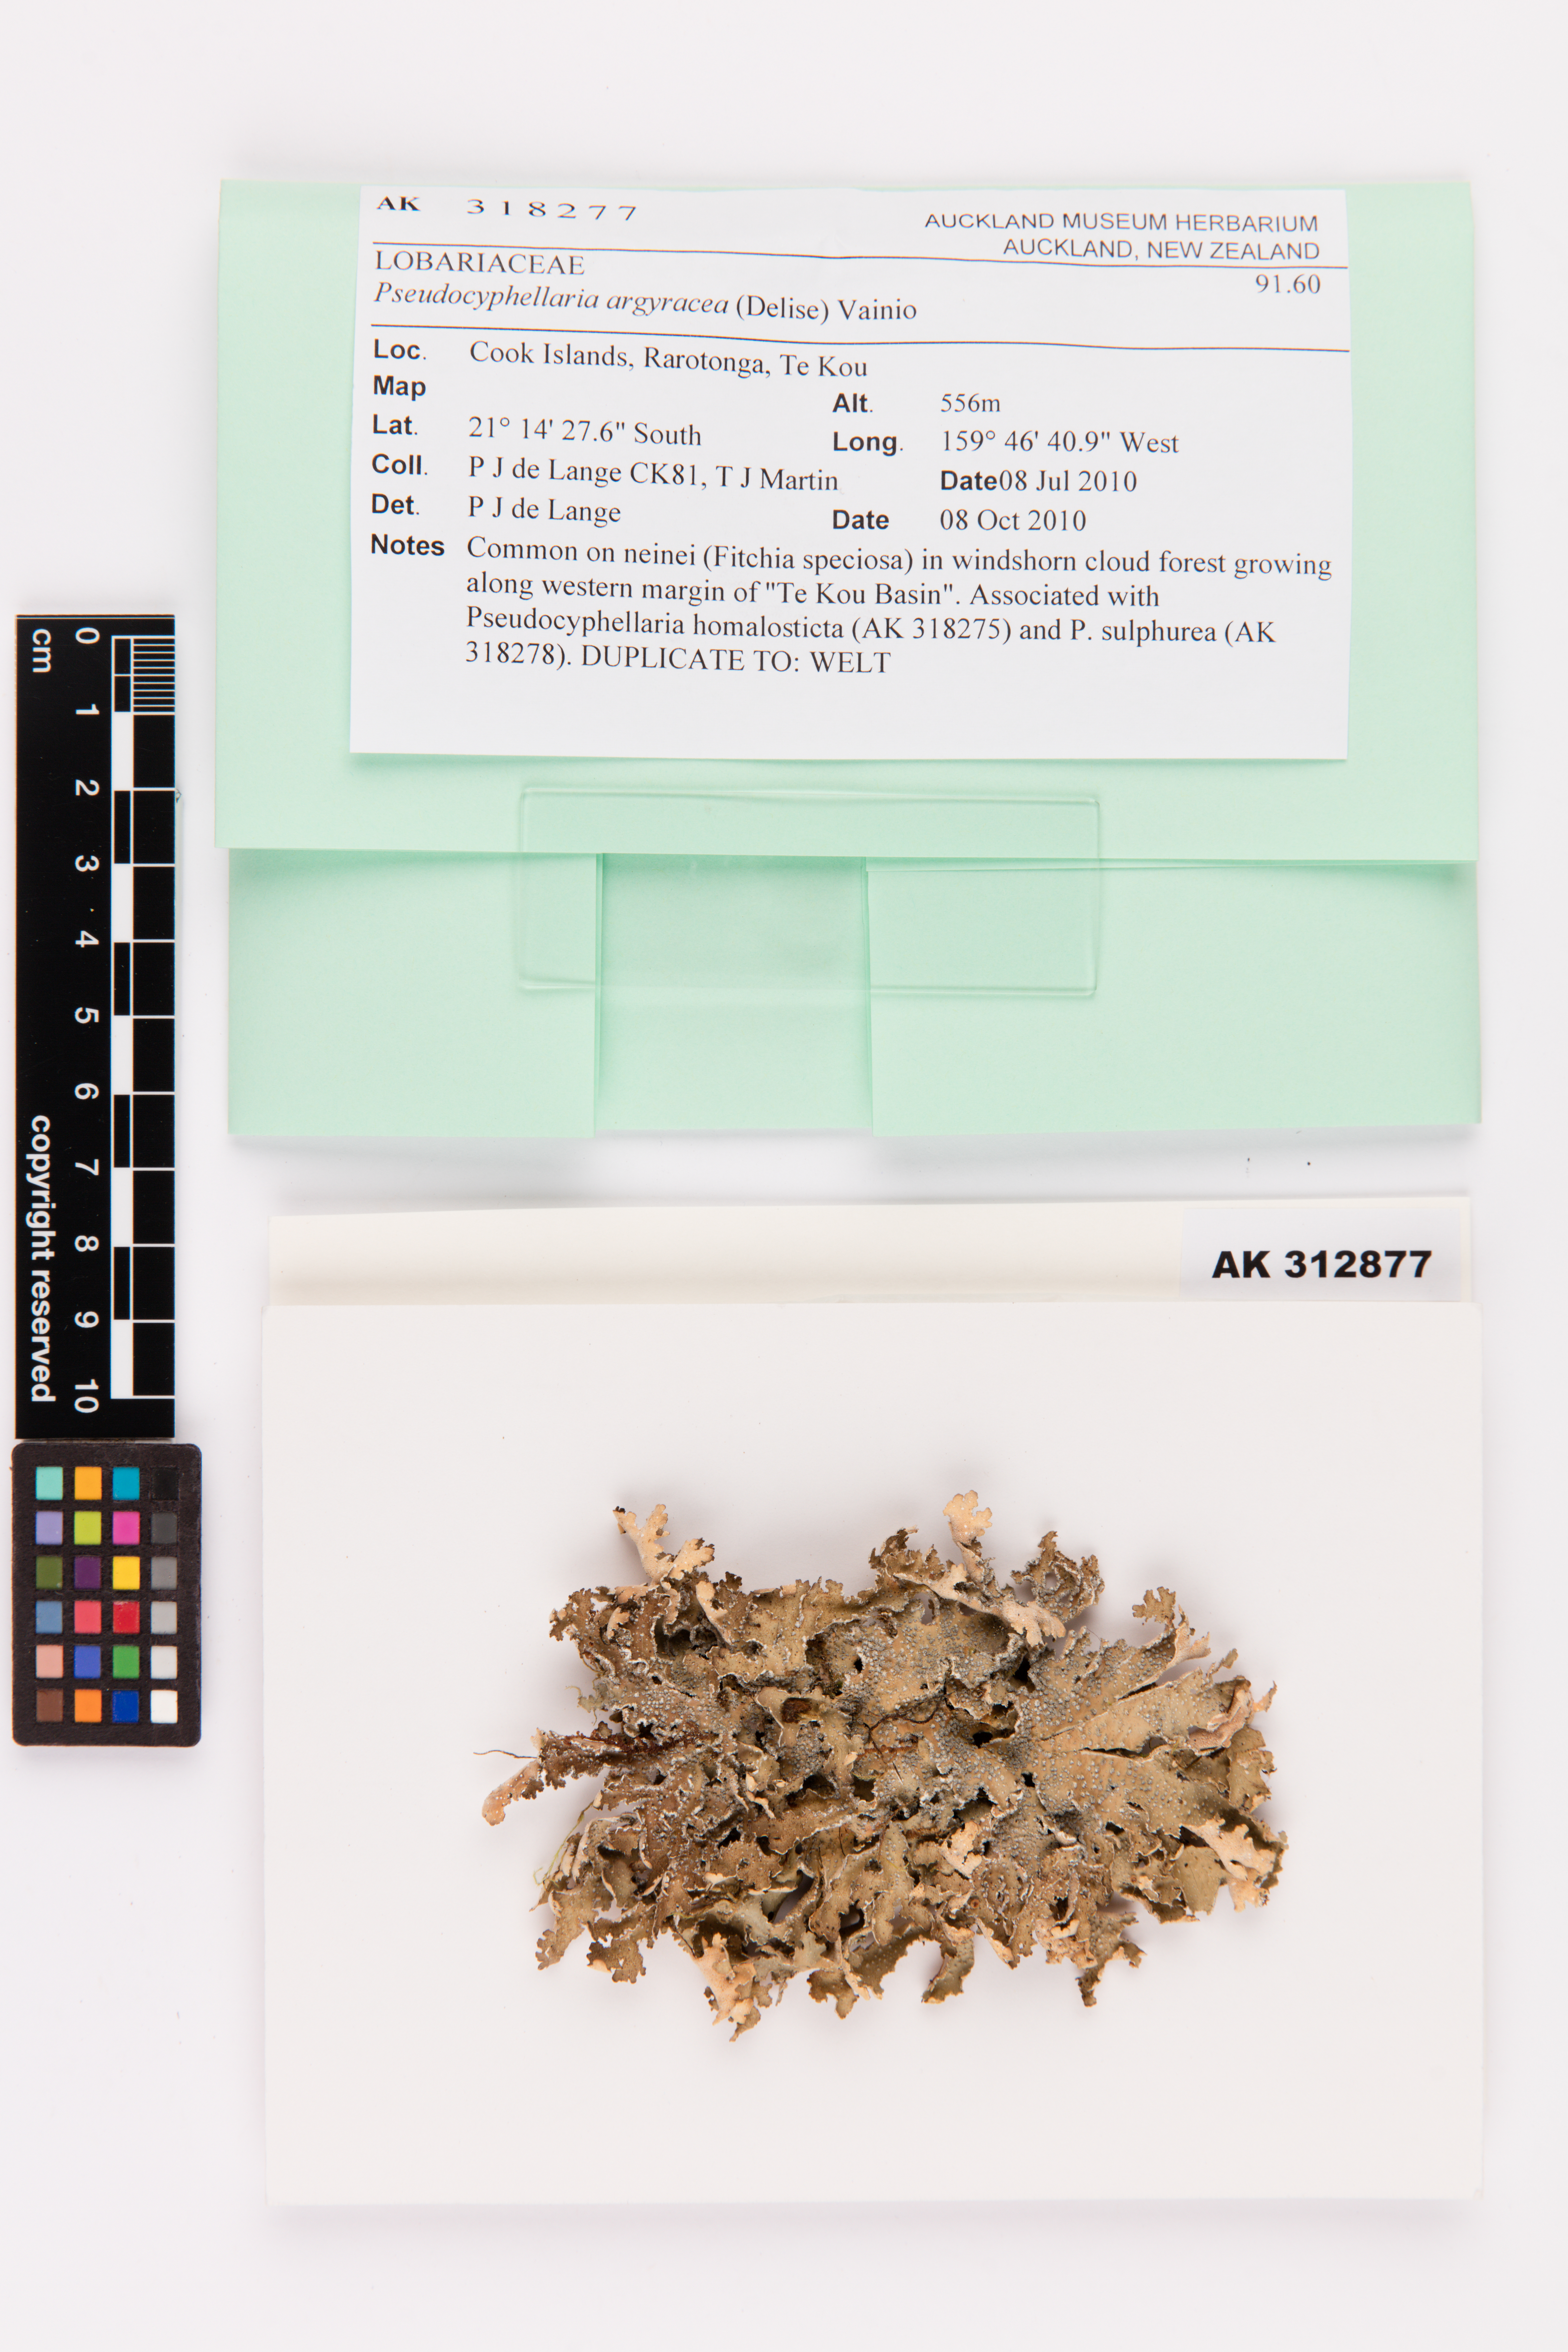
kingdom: Fungi
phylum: Ascomycota
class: Lecanoromycetes
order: Peltigerales
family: Lobariaceae
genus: Pseudocyphellaria
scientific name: Pseudocyphellaria argyracea
